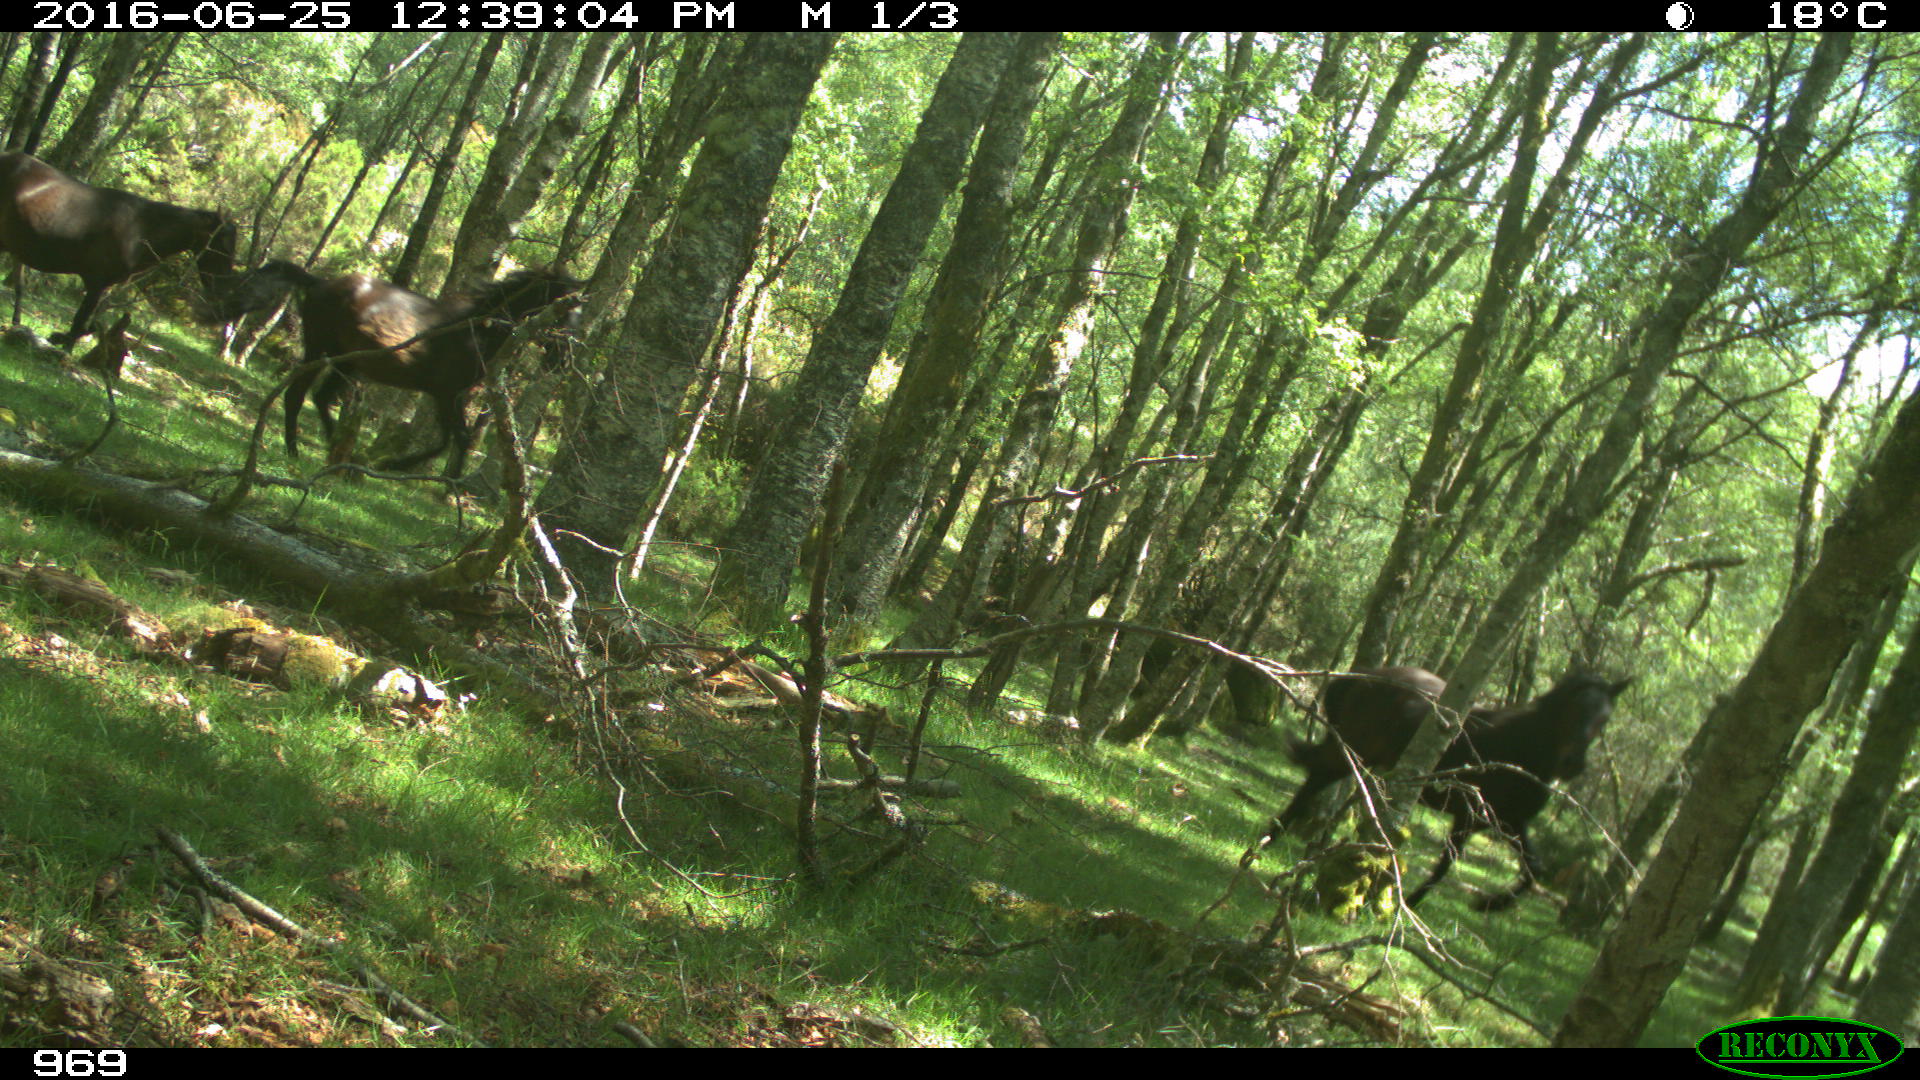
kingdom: Animalia
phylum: Chordata
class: Mammalia
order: Perissodactyla
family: Equidae
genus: Equus
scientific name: Equus caballus
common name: Horse
